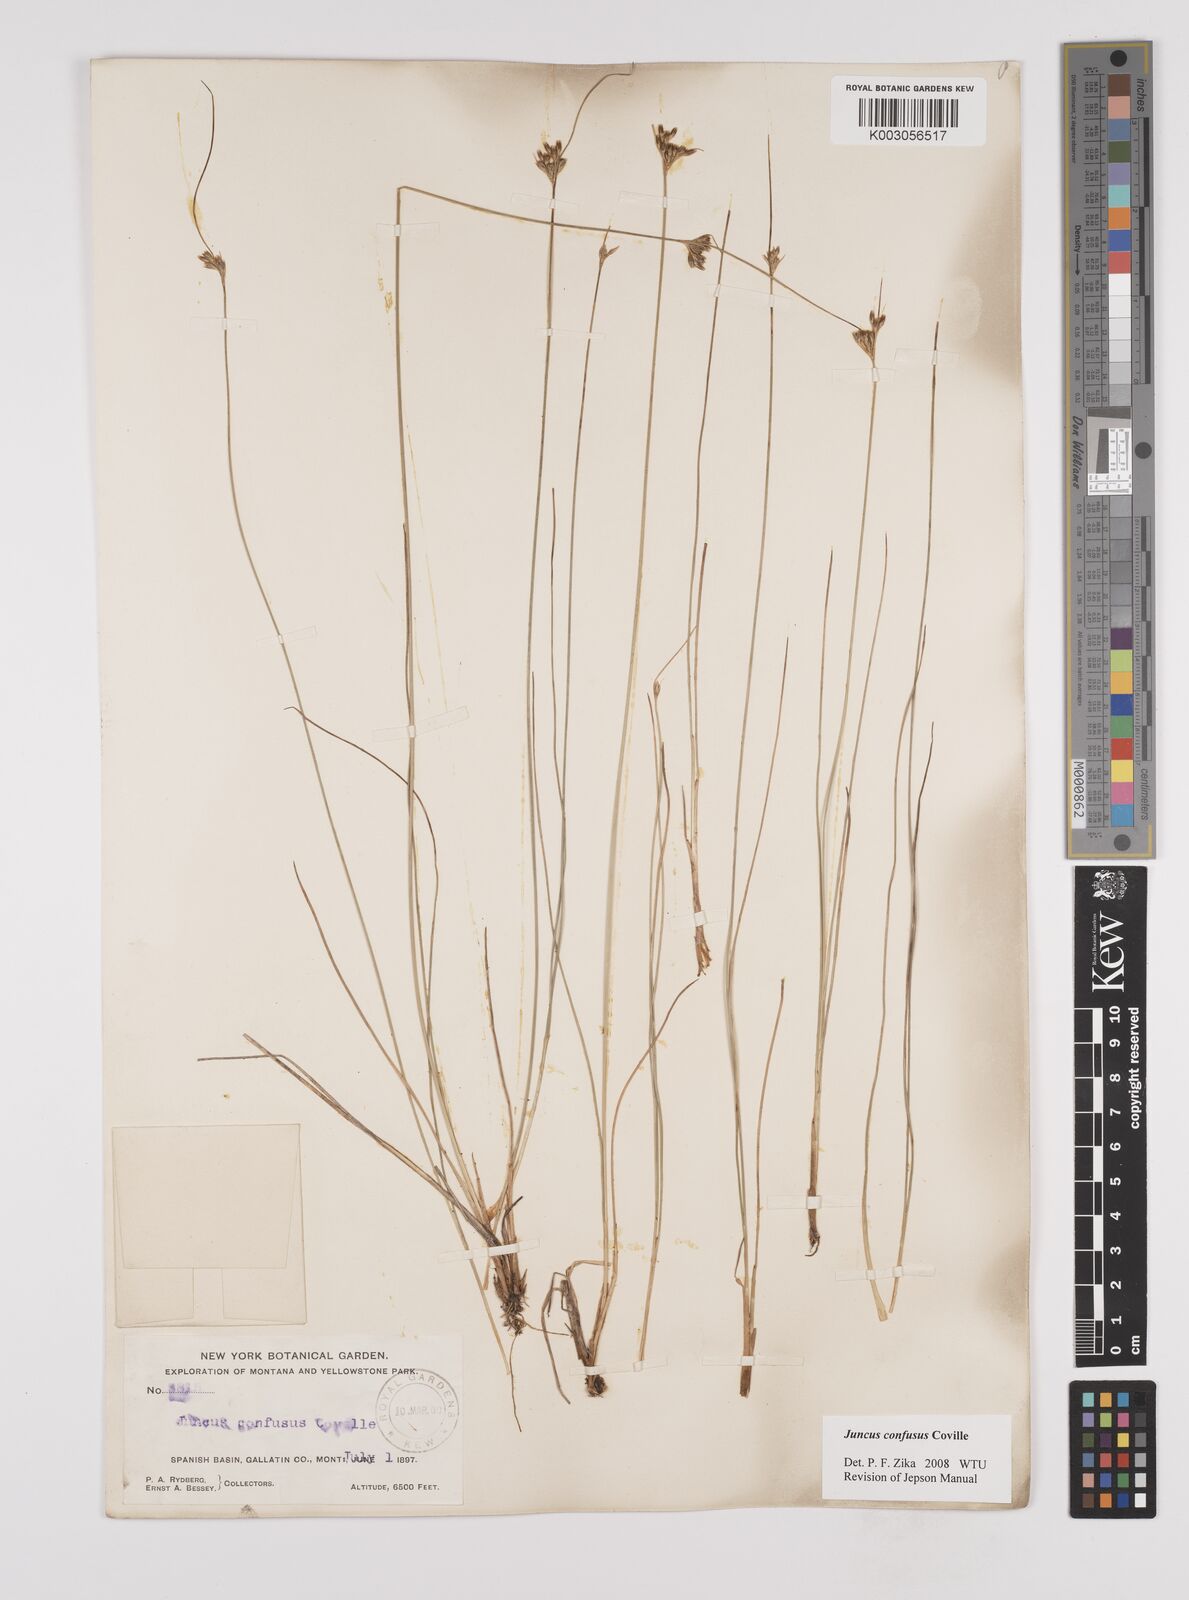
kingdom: Plantae
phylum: Tracheophyta
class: Liliopsida
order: Poales
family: Juncaceae
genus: Juncus
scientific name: Juncus confusus
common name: Colorado rush
